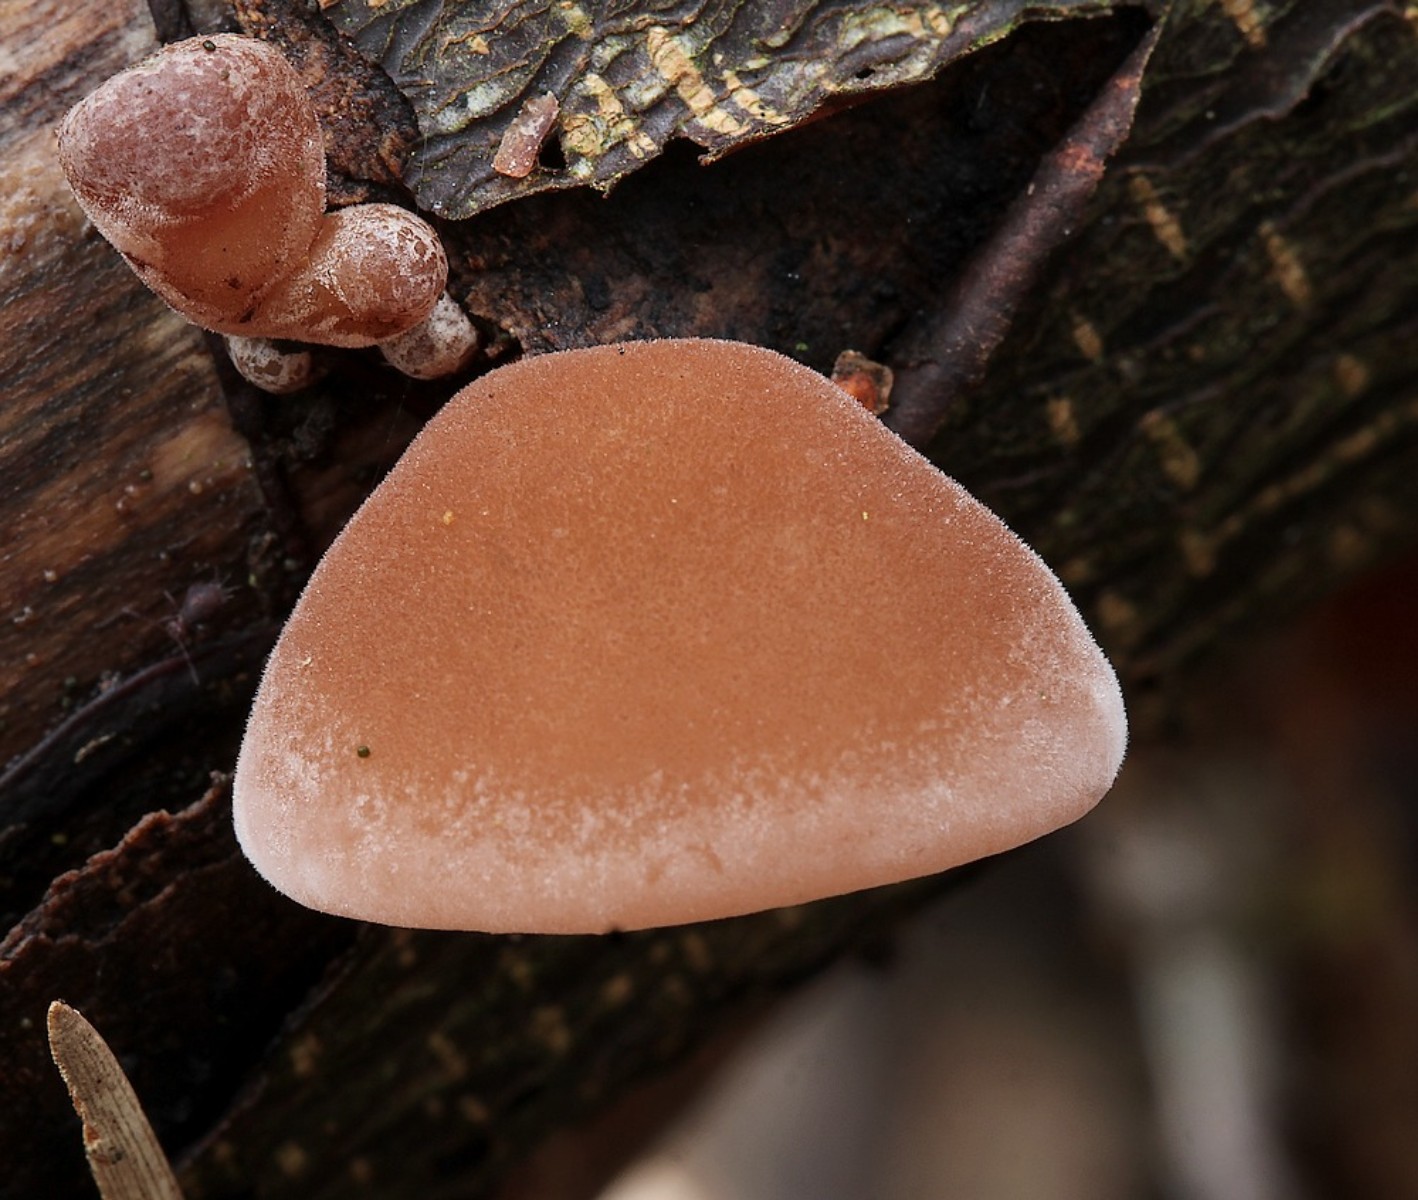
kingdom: Fungi
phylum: Basidiomycota
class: Agaricomycetes
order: Auriculariales
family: Auriculariaceae
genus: Auricularia
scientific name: Auricularia auricula-judae
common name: almindelig judasøre
